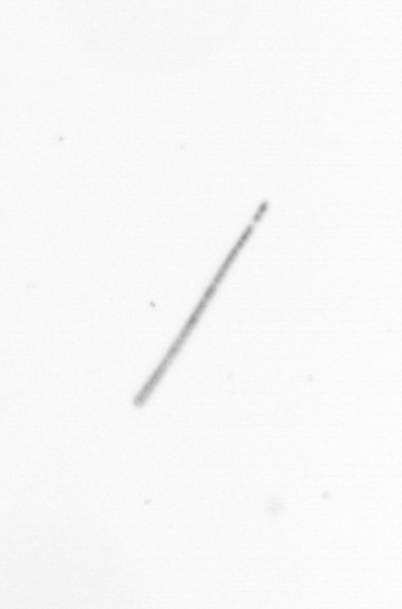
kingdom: Chromista
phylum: Ochrophyta
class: Bacillariophyceae
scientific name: Bacillariophyceae
